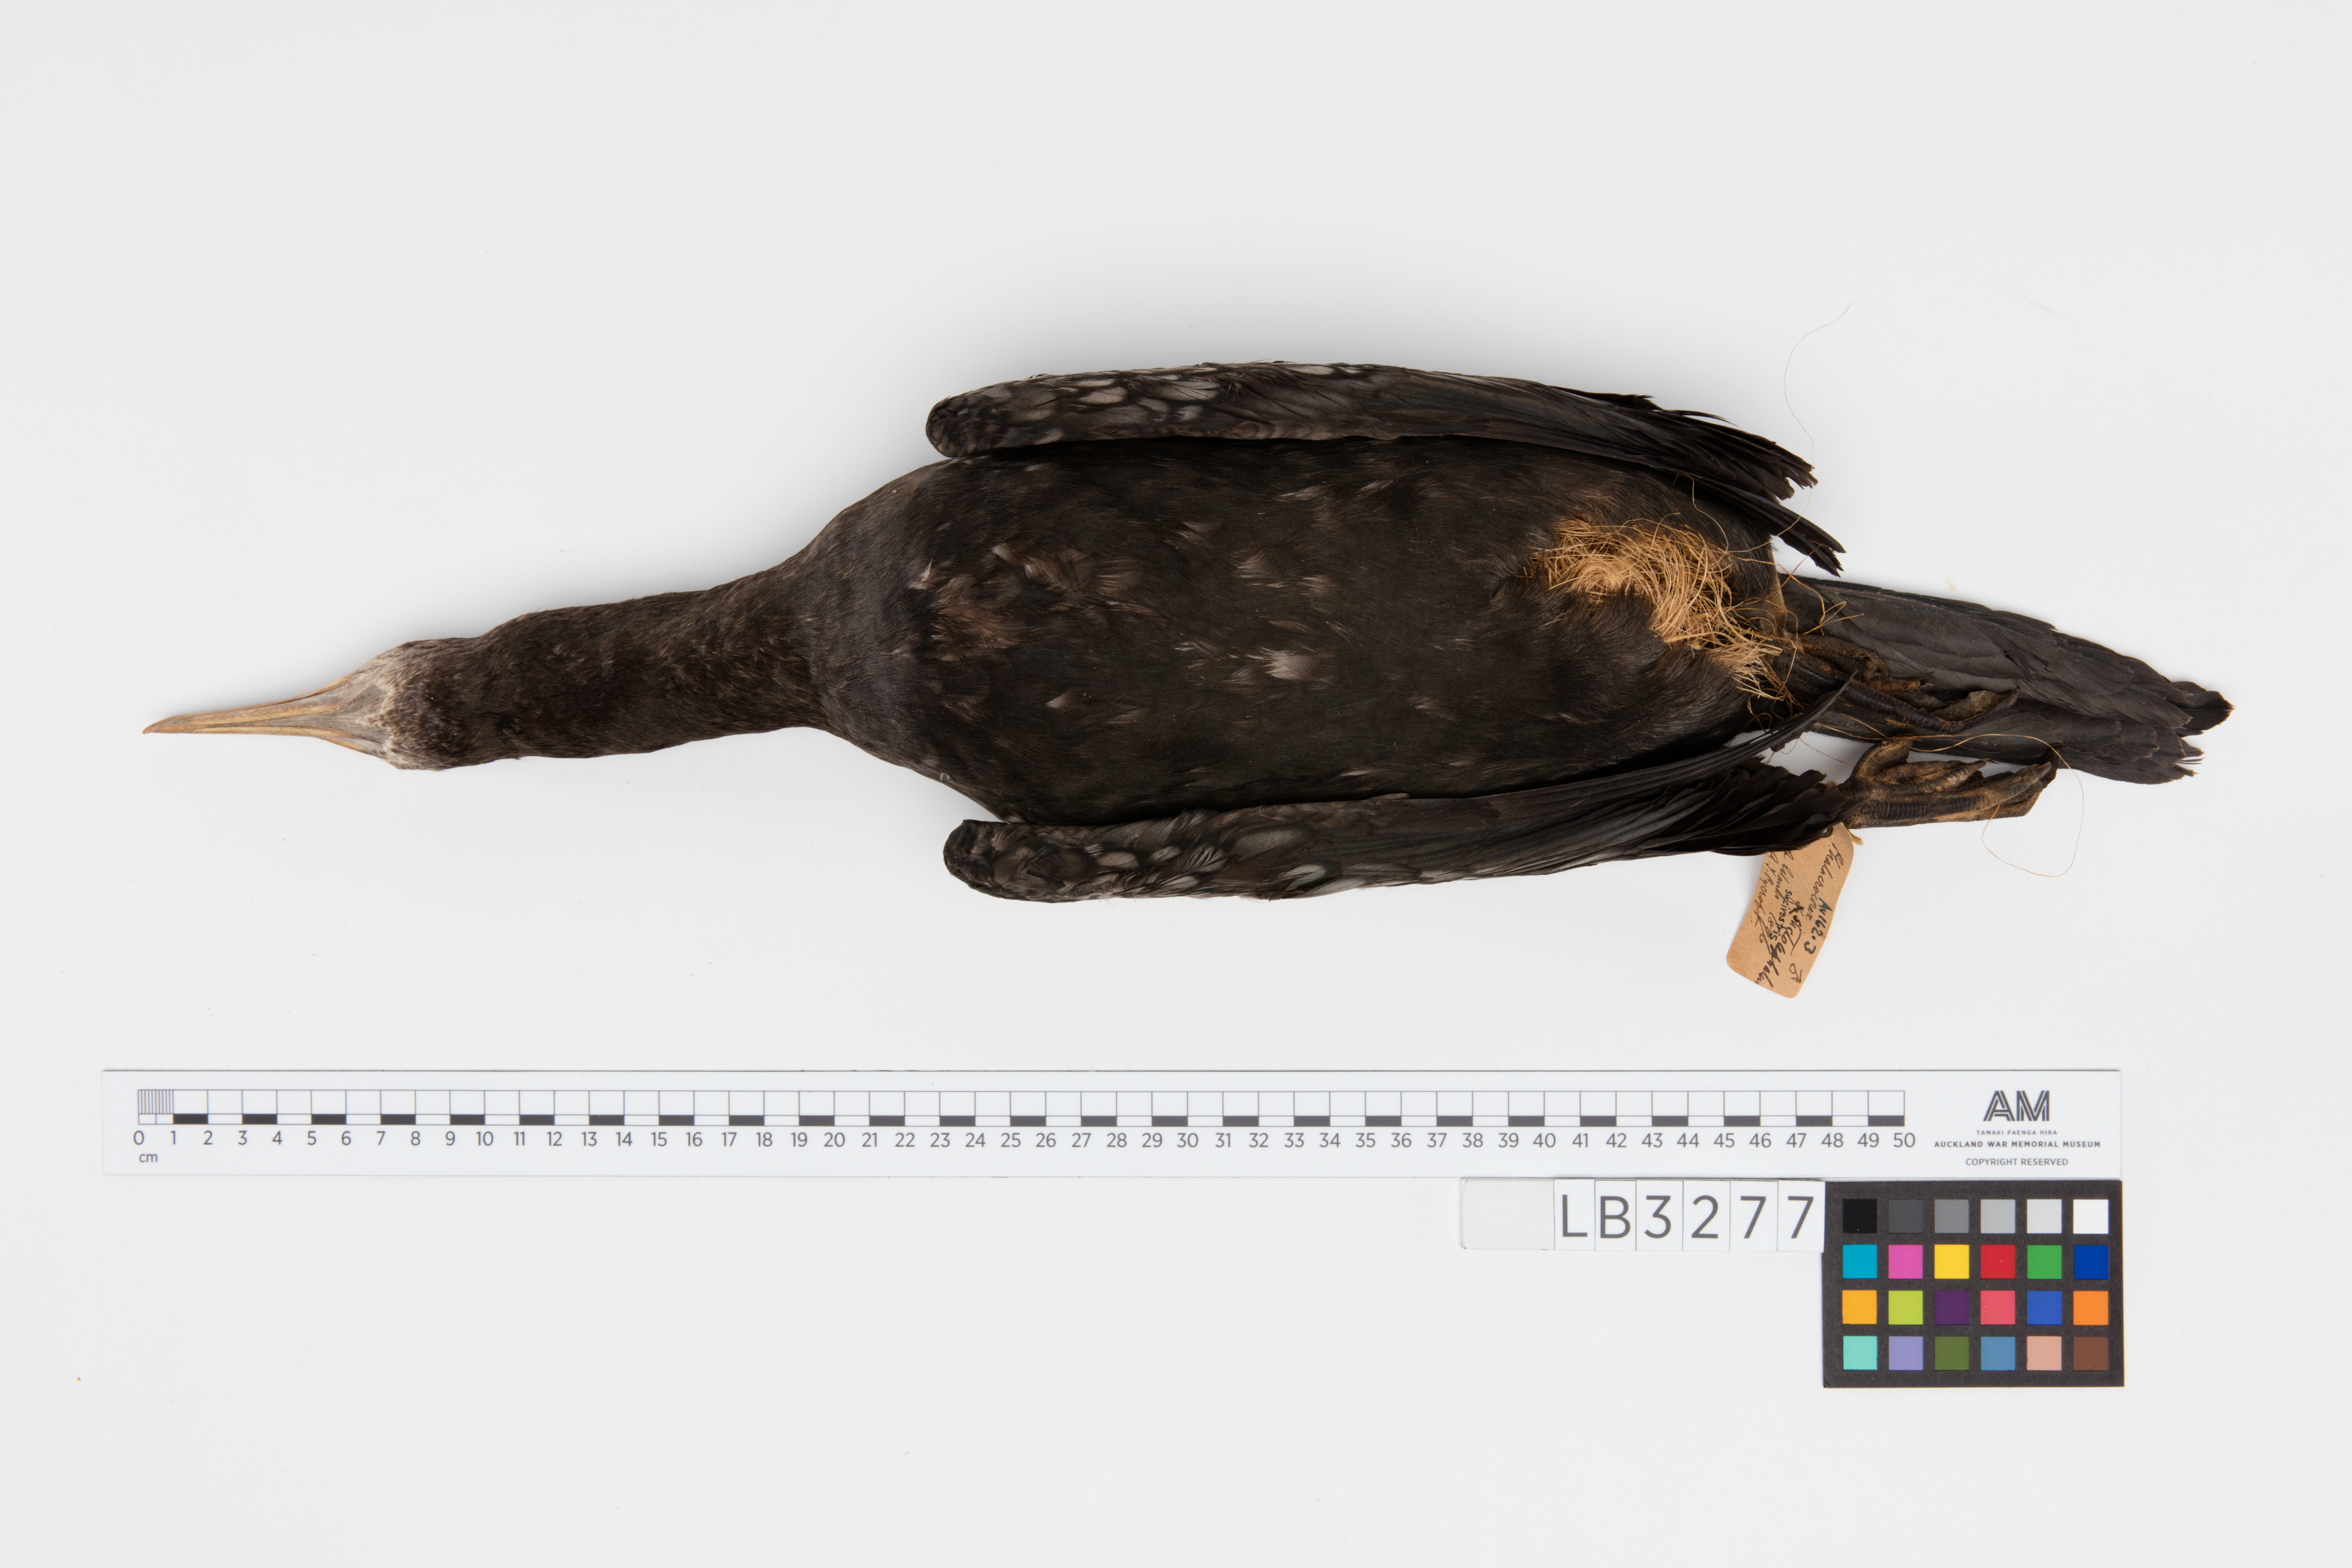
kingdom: Animalia
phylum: Chordata
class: Aves
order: Suliformes
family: Phalacrocoracidae
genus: Phalacrocorax
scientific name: Phalacrocorax sulcirostris
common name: Little black cormorant
